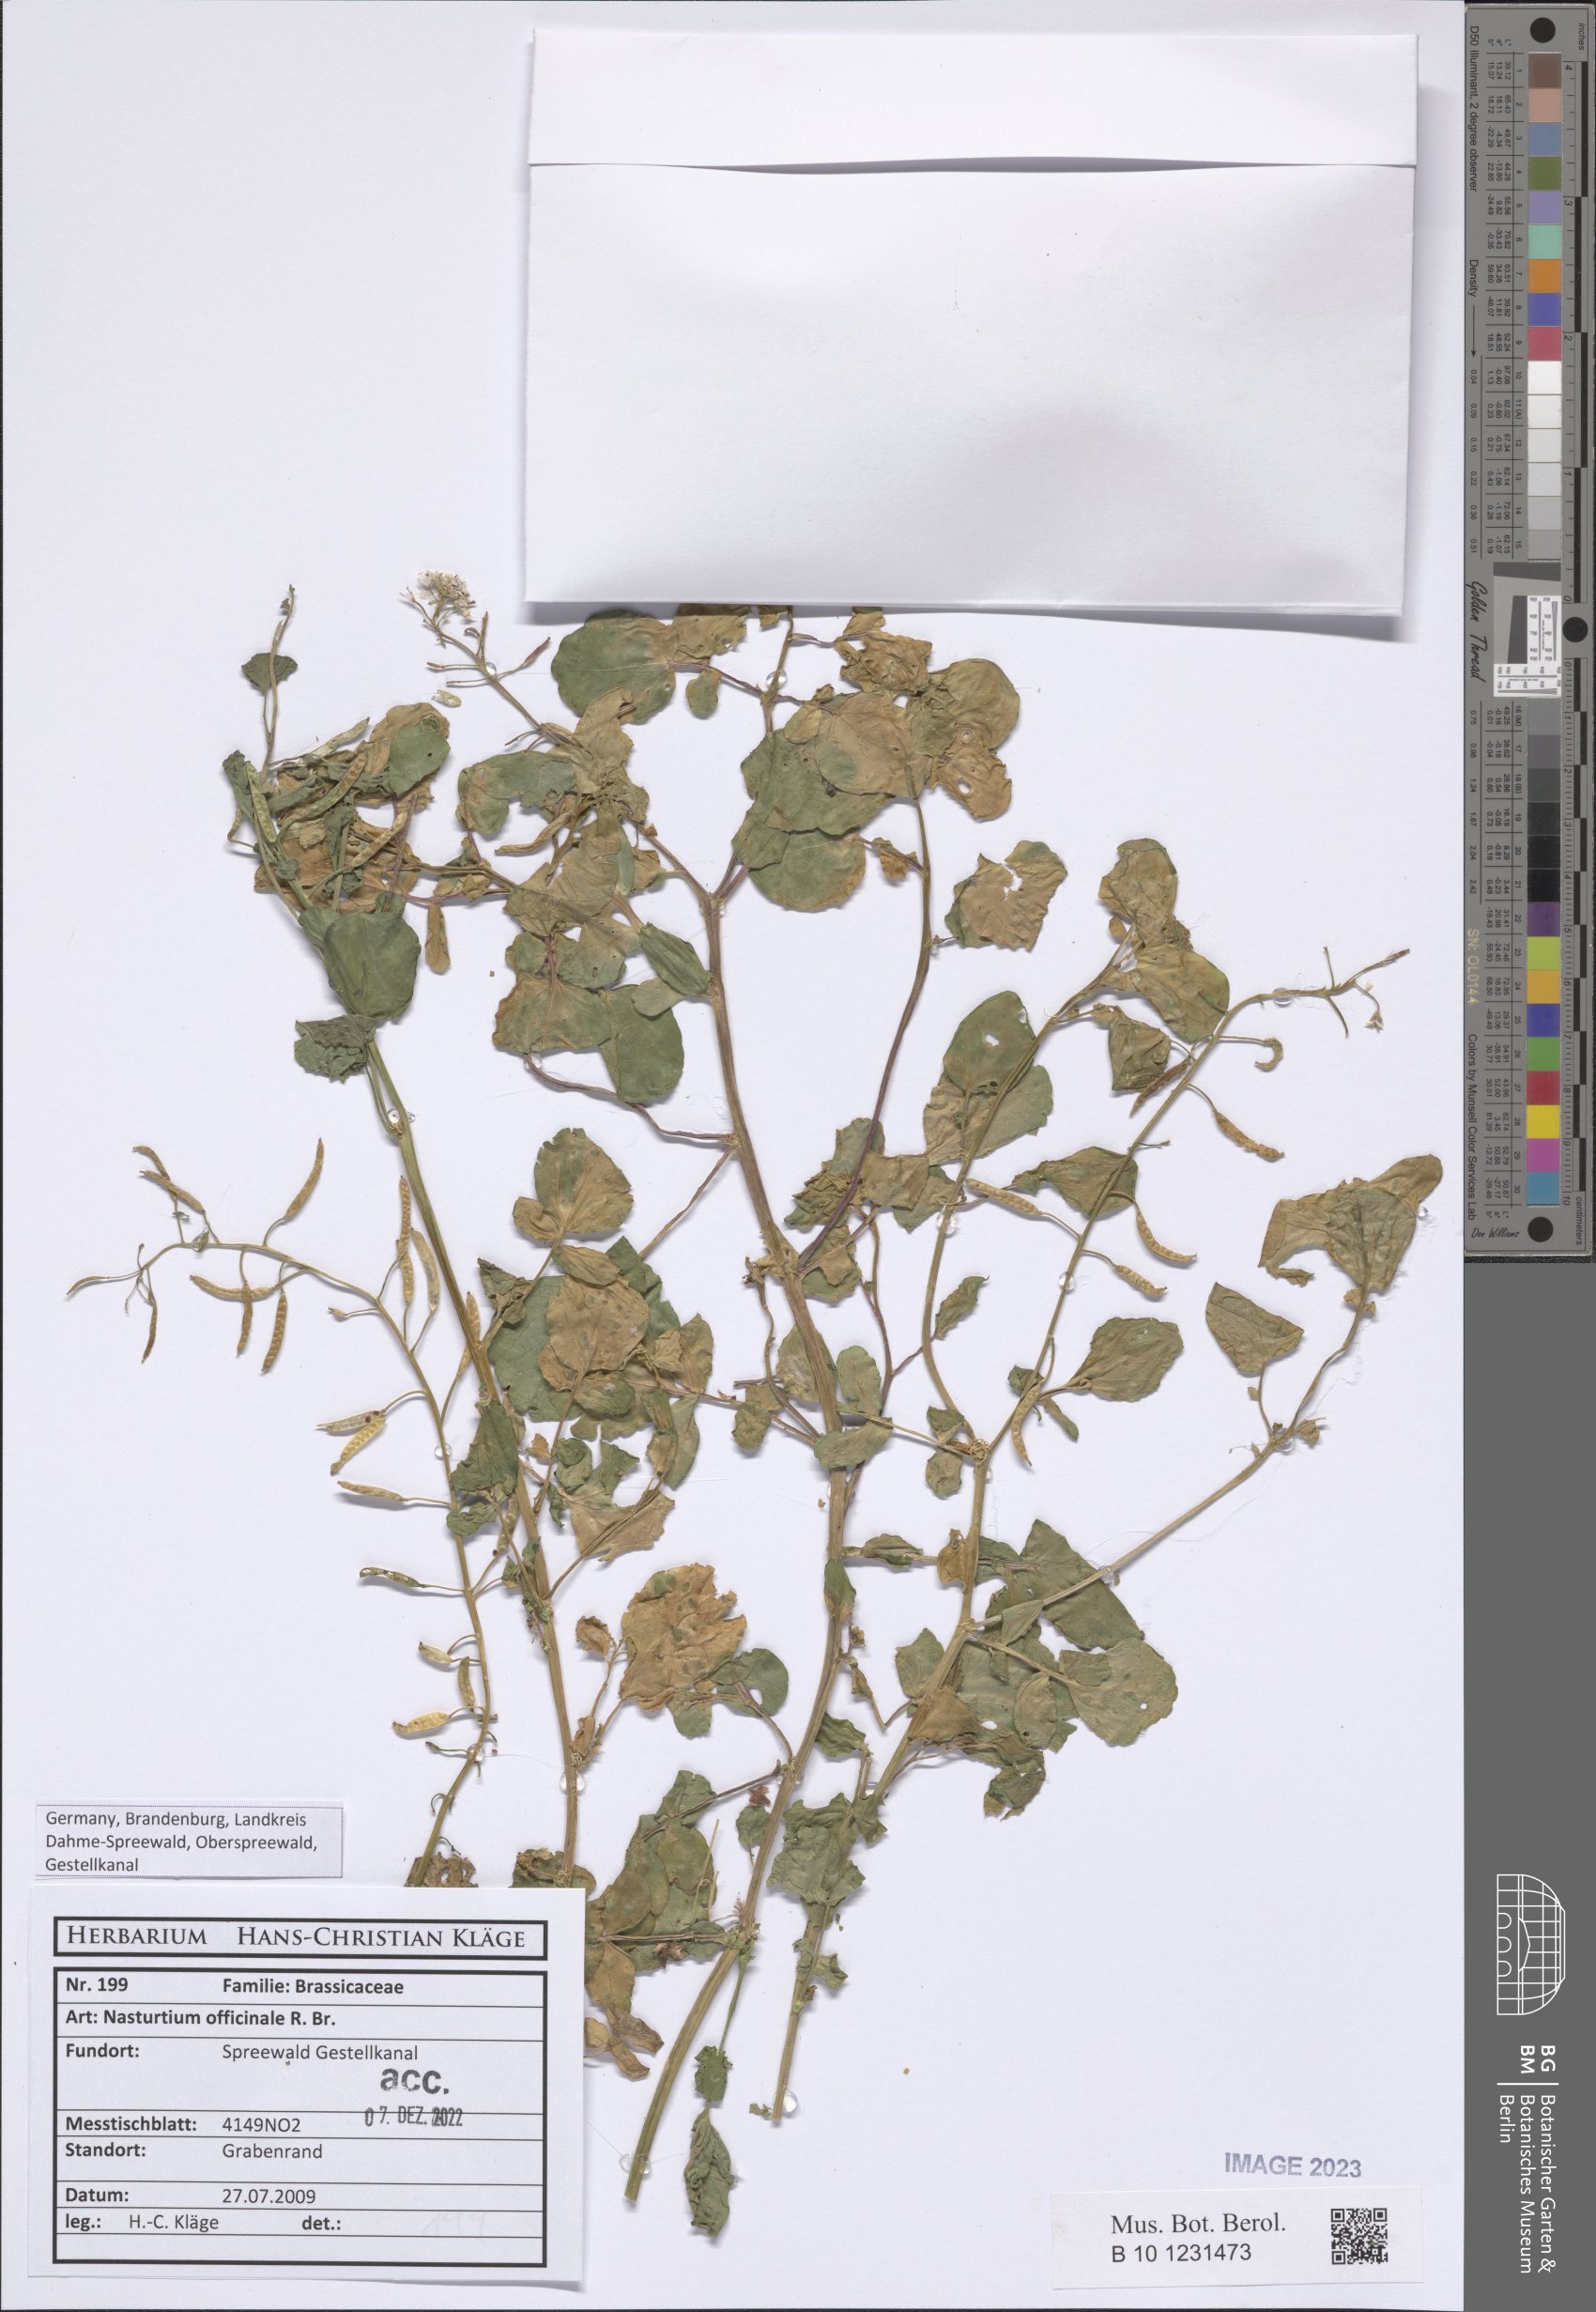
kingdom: Plantae
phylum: Tracheophyta
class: Magnoliopsida
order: Brassicales
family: Brassicaceae
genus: Nasturtium
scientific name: Nasturtium officinale
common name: Watercress
